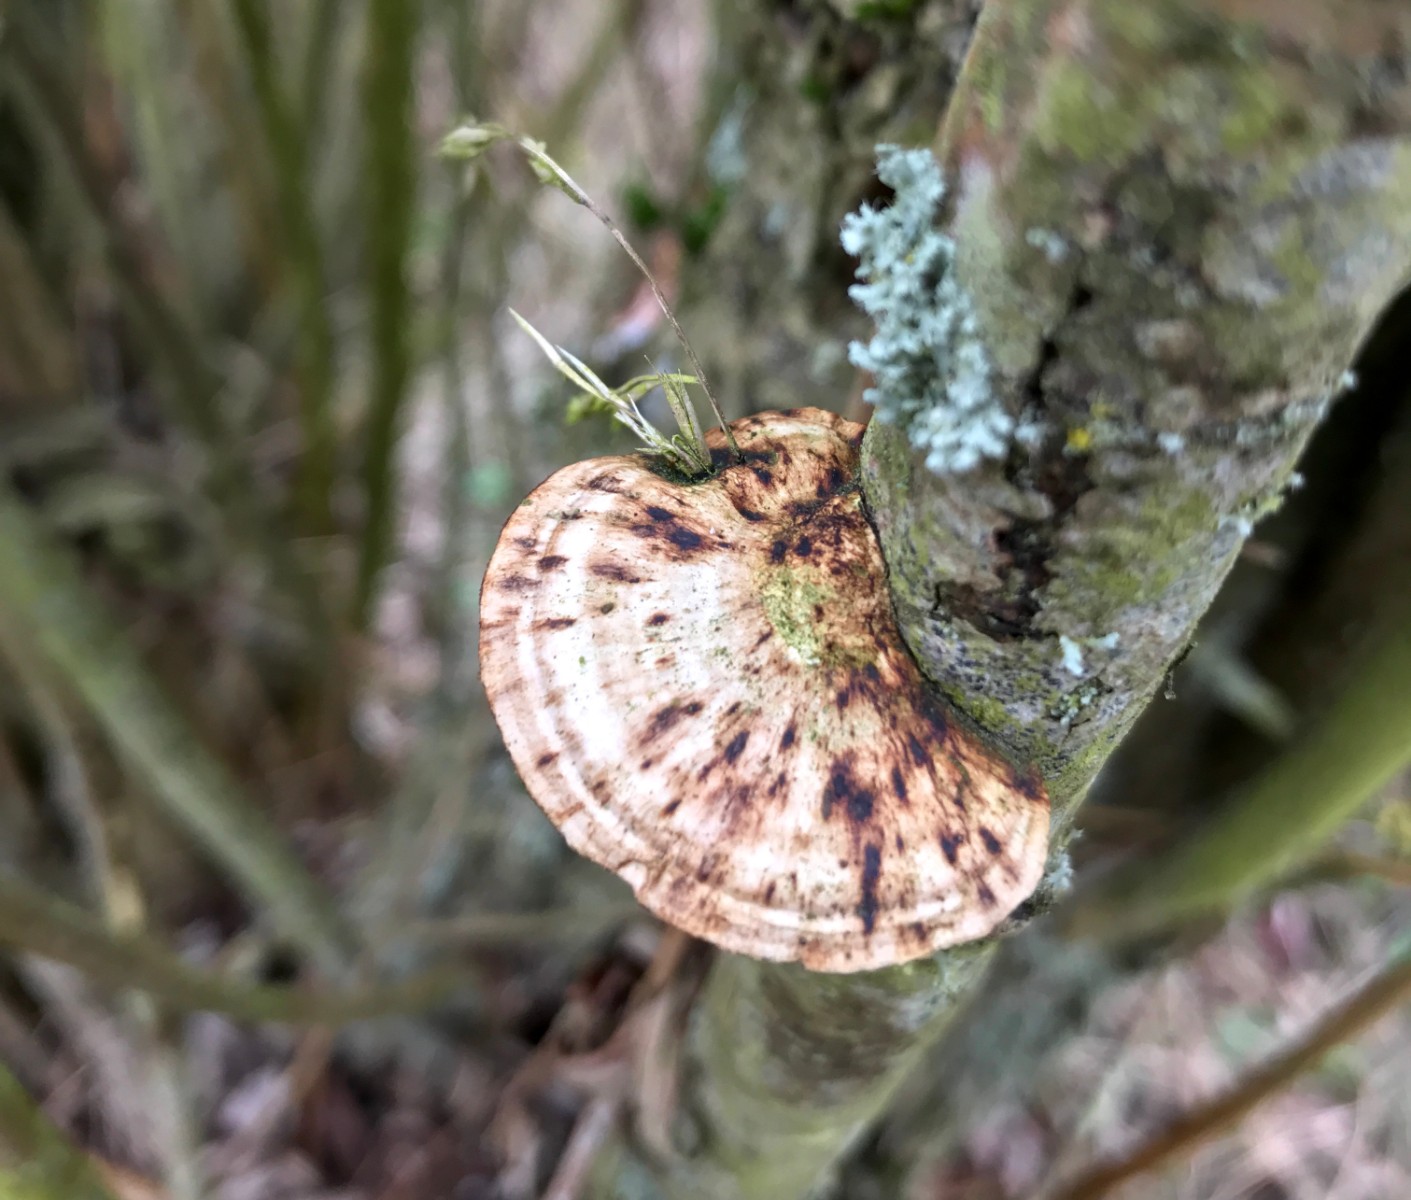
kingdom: Fungi
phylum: Basidiomycota
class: Agaricomycetes
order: Polyporales
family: Polyporaceae
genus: Daedaleopsis
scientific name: Daedaleopsis confragosa
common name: rødmende læderporesvamp
